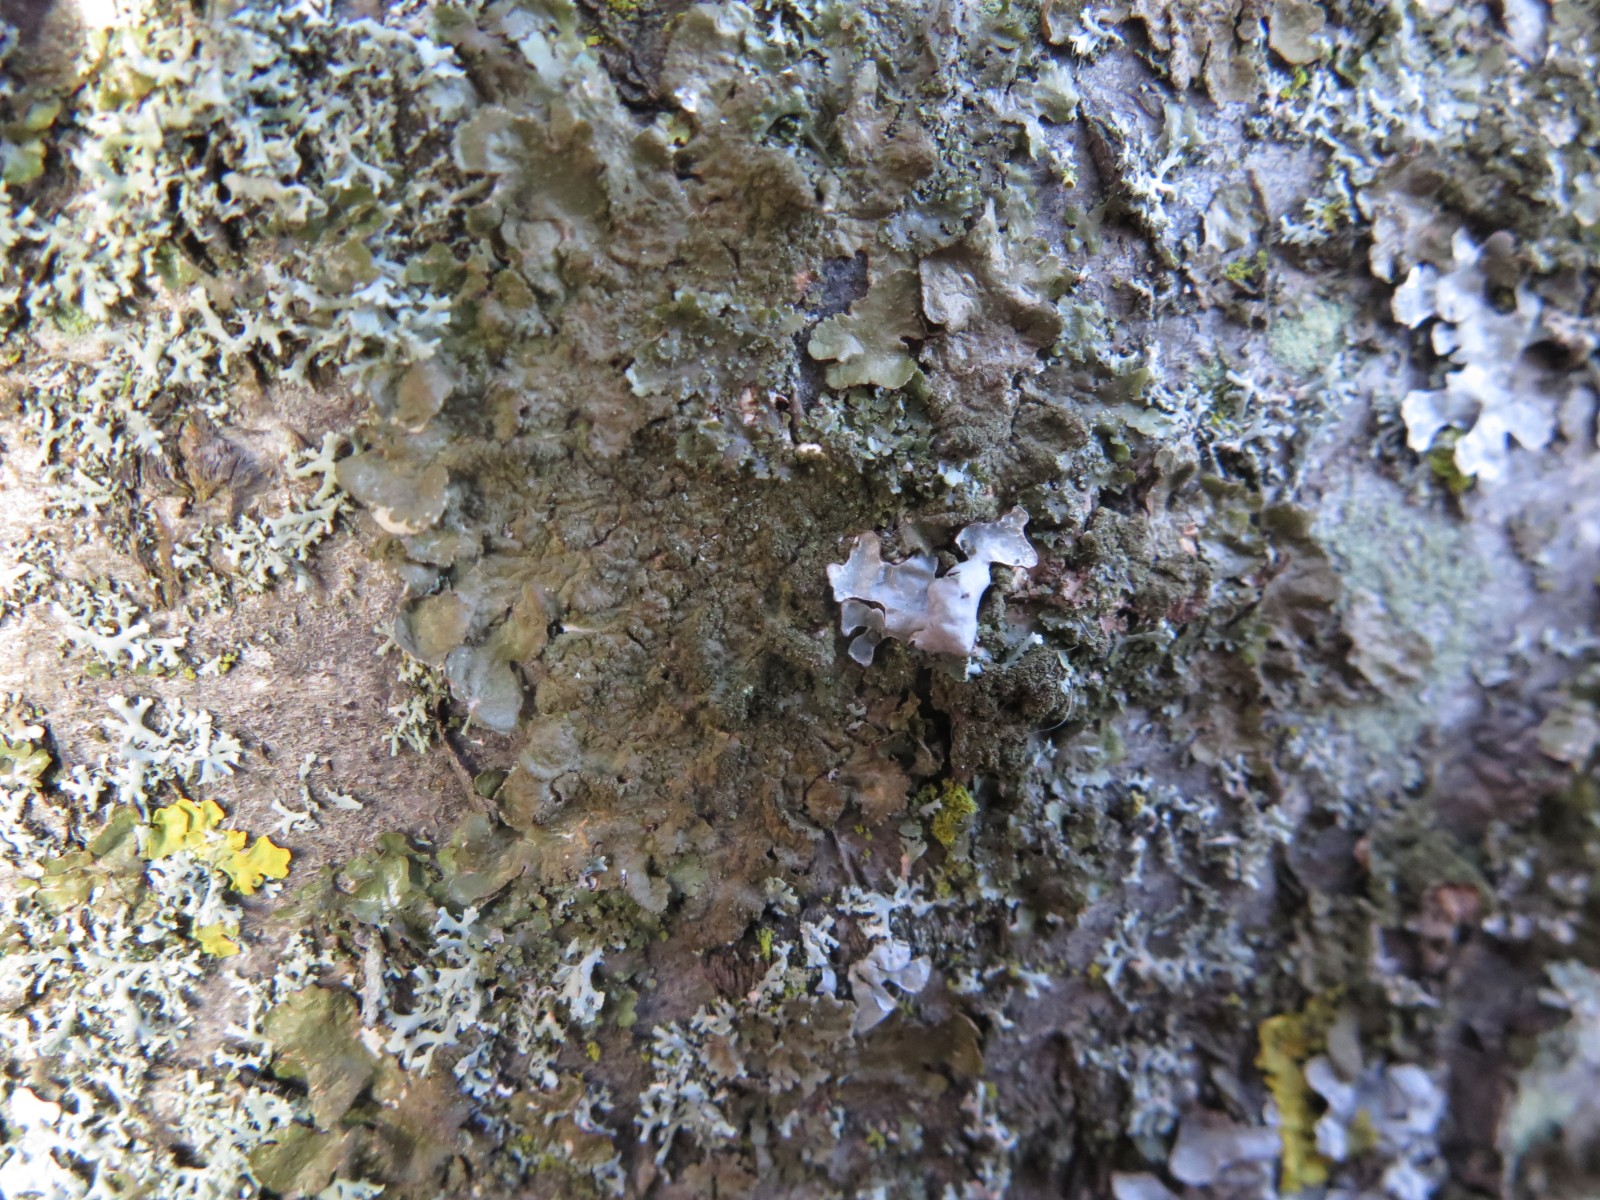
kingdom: Fungi
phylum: Ascomycota
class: Lecanoromycetes
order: Lecanorales
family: Parmeliaceae
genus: Melanelixia
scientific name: Melanelixia subaurifera
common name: guldpudret skållav
